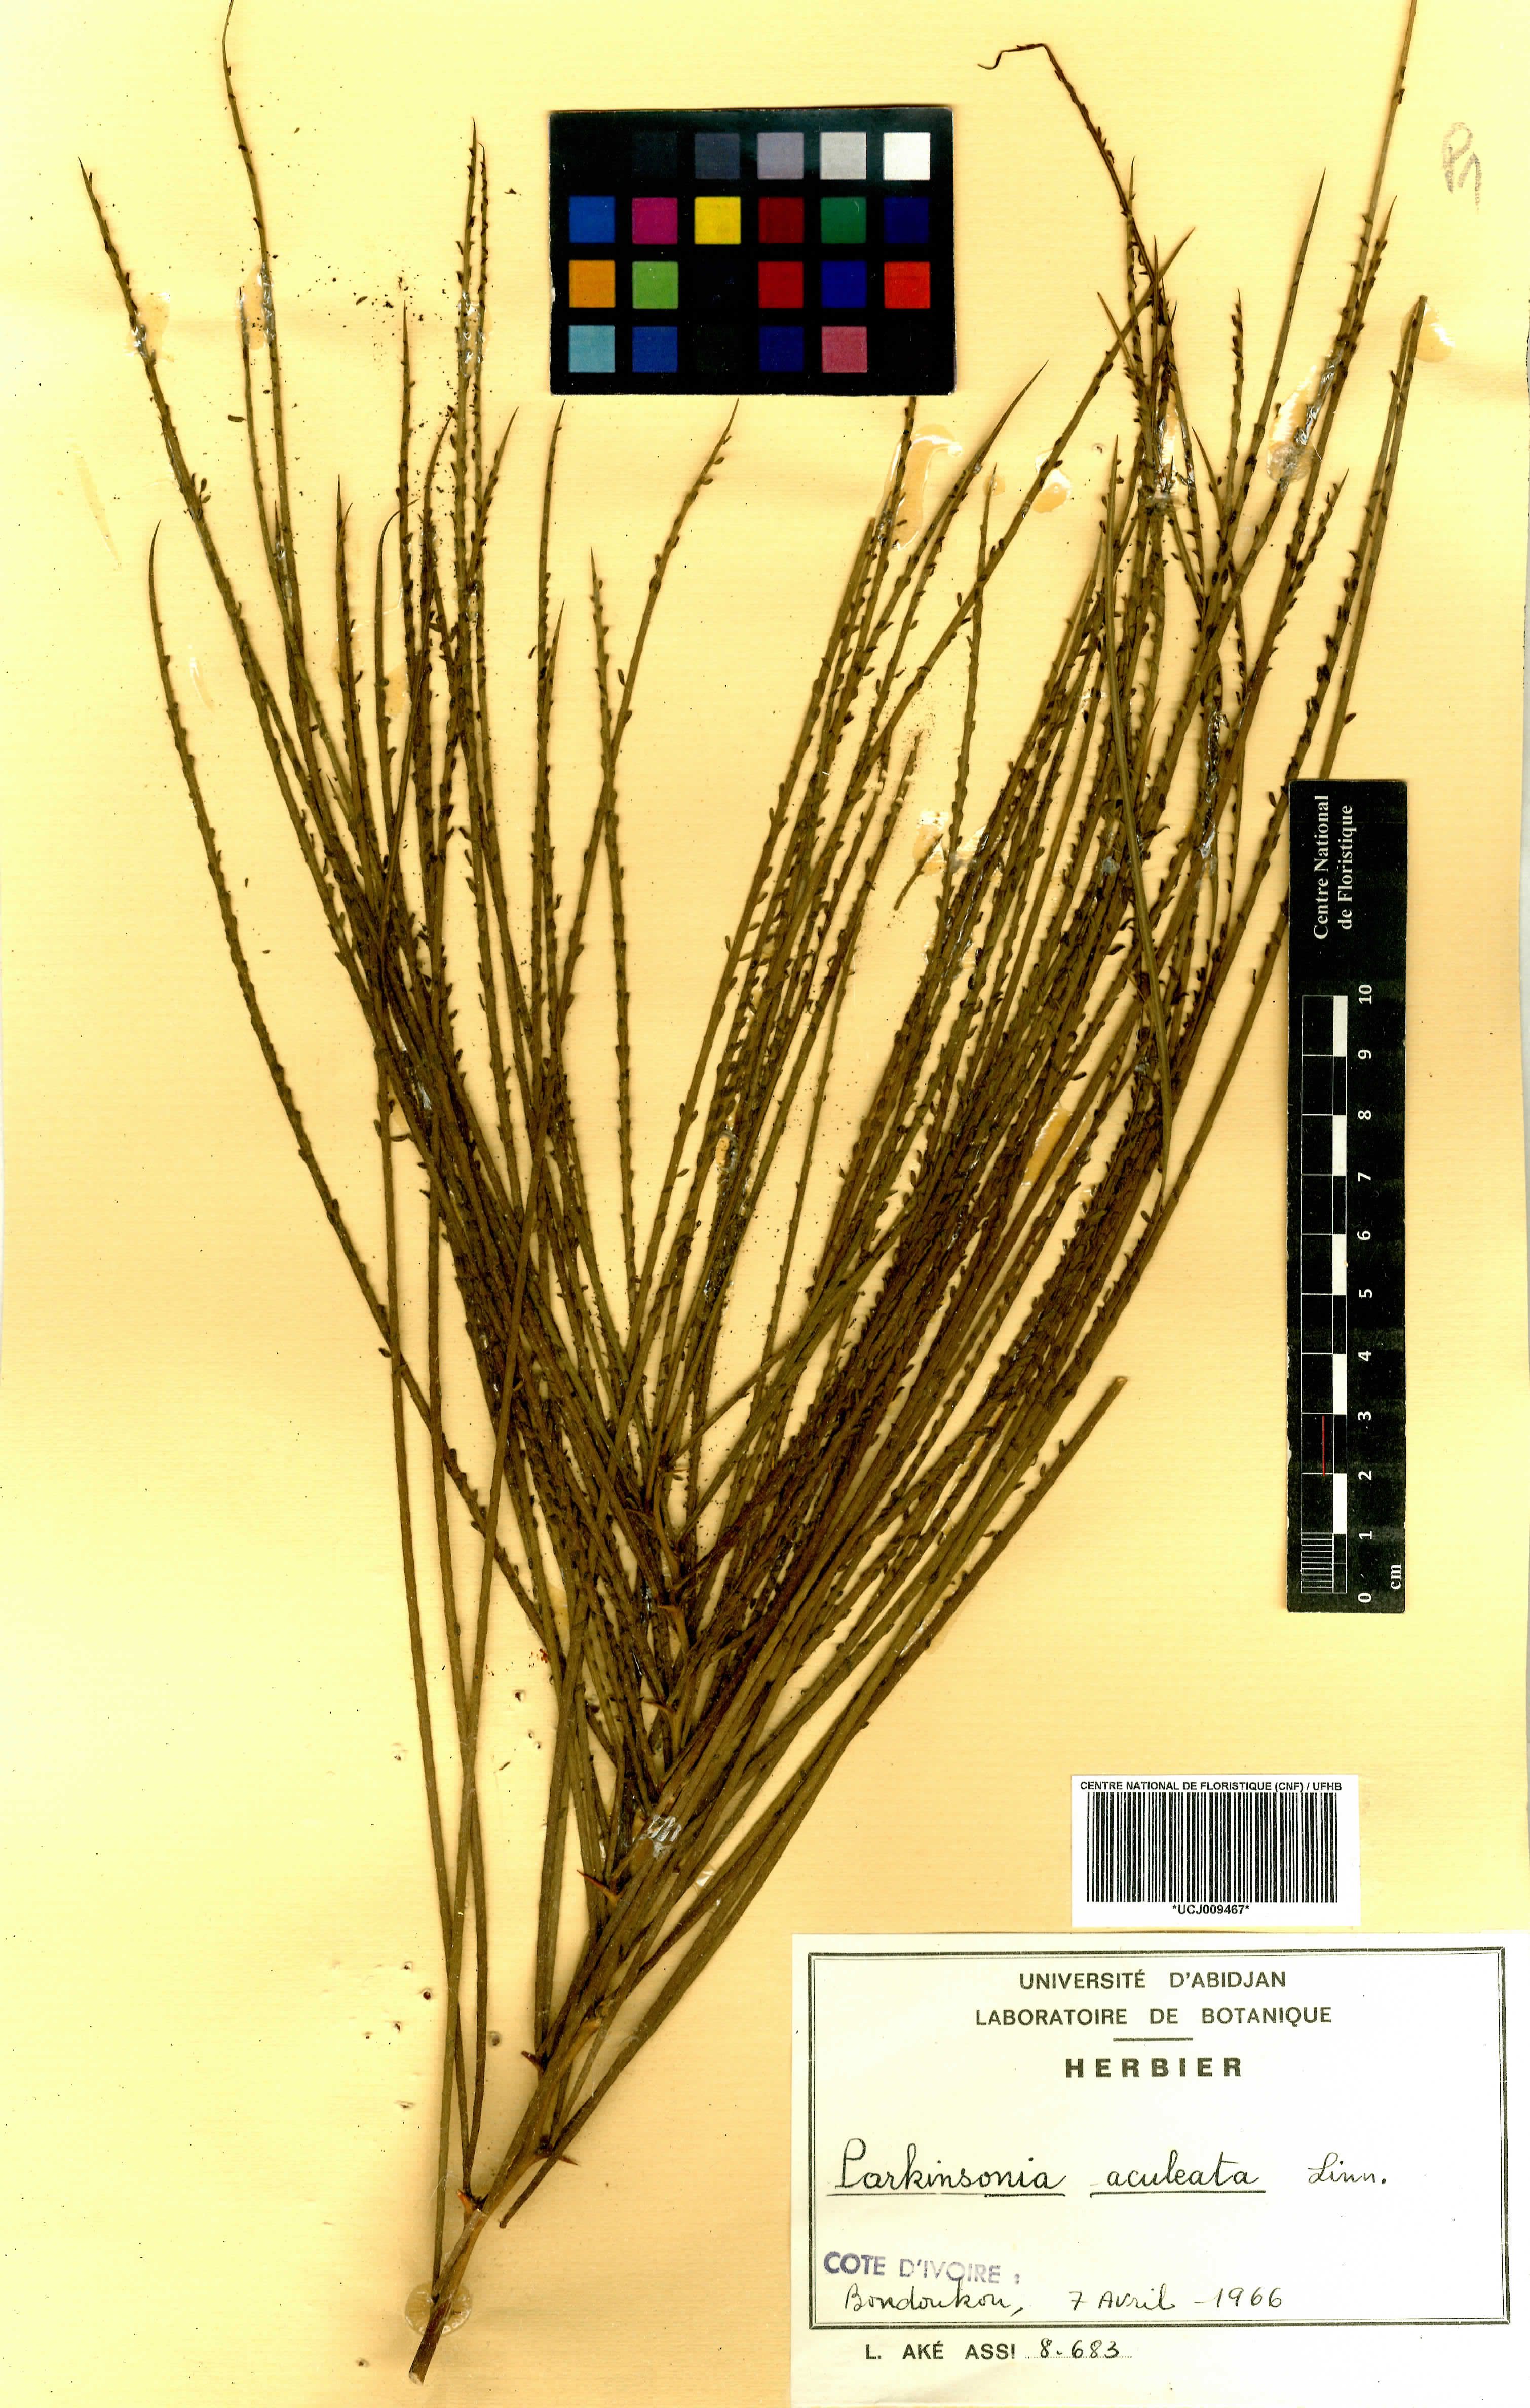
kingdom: Plantae
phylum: Tracheophyta
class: Magnoliopsida
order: Fabales
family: Fabaceae
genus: Parkinsonia
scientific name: Parkinsonia aculeata
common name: Jerusalem thorn
